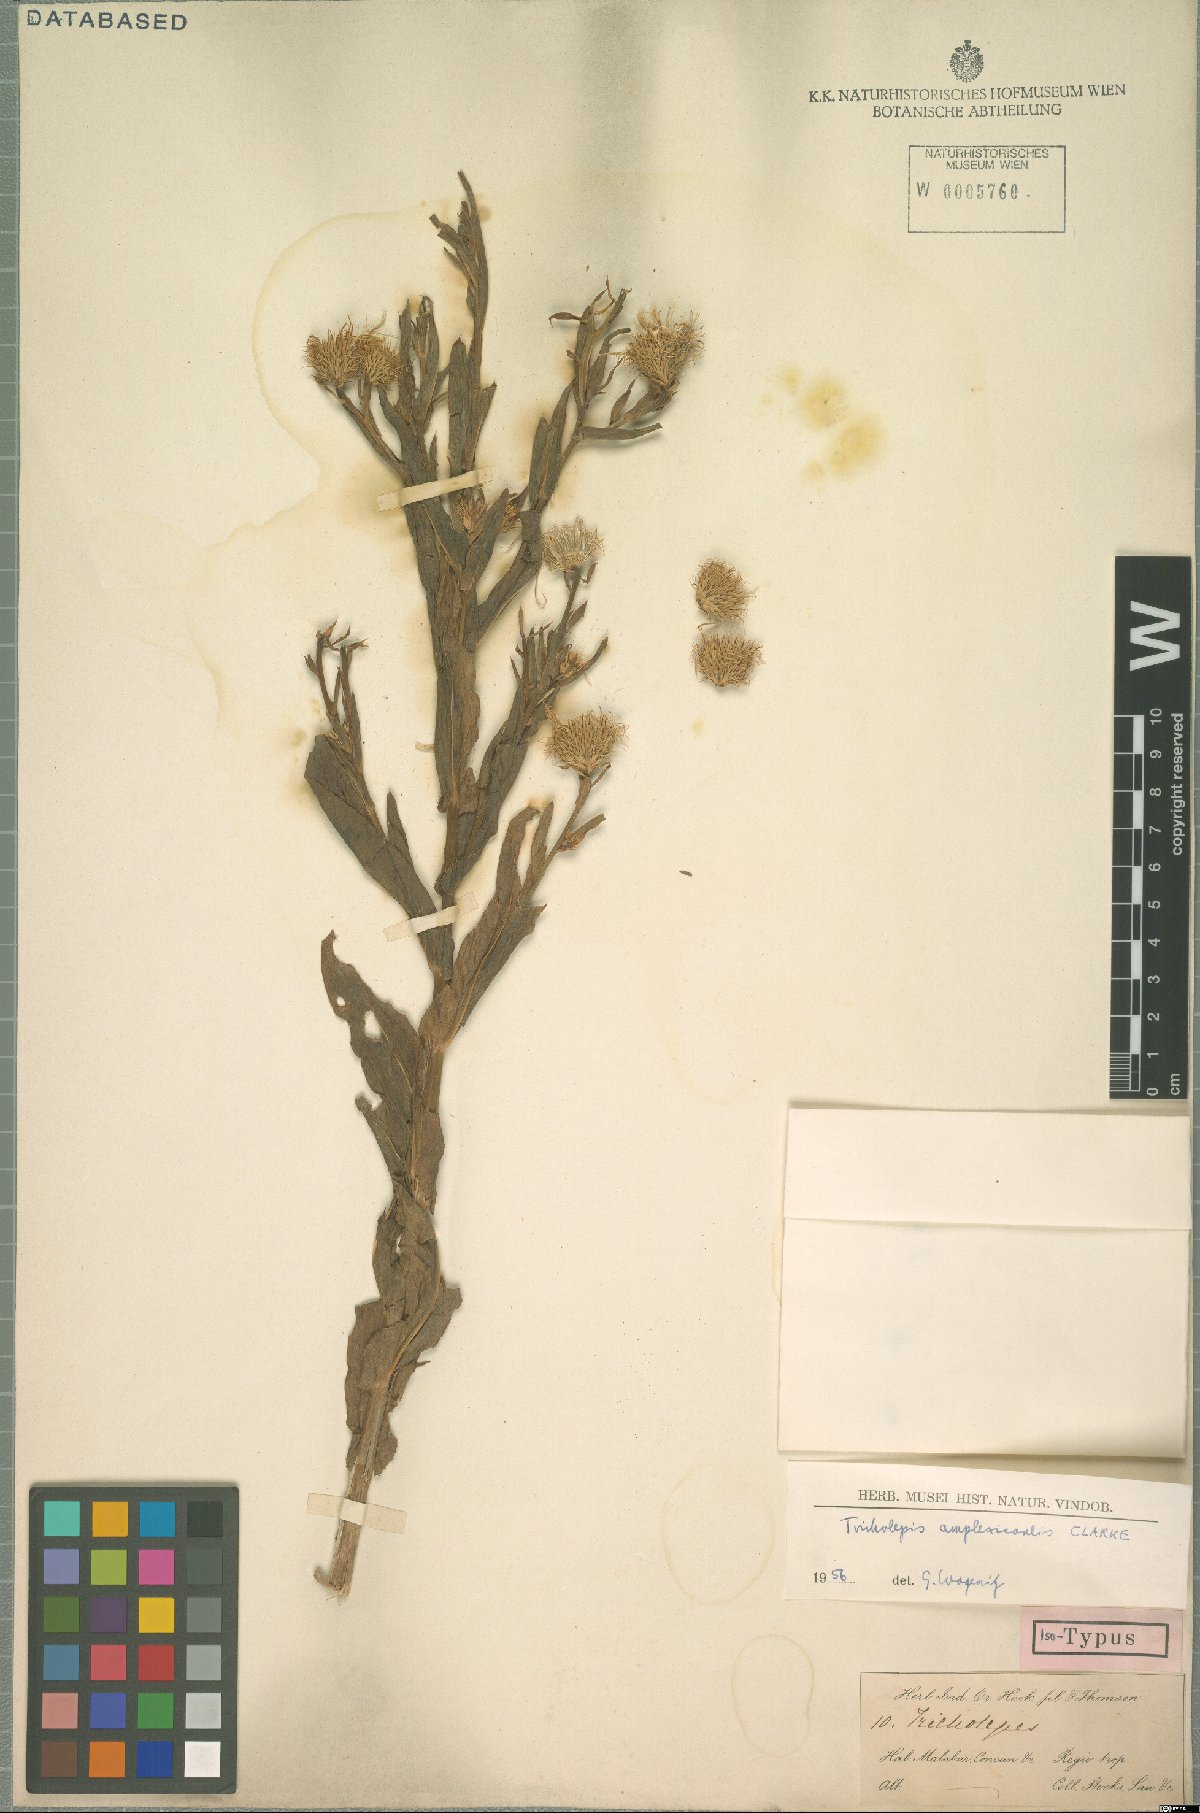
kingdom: Plantae
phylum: Tracheophyta
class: Magnoliopsida
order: Asterales
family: Asteraceae
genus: Tricholepis
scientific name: Tricholepis amplexicaulis
